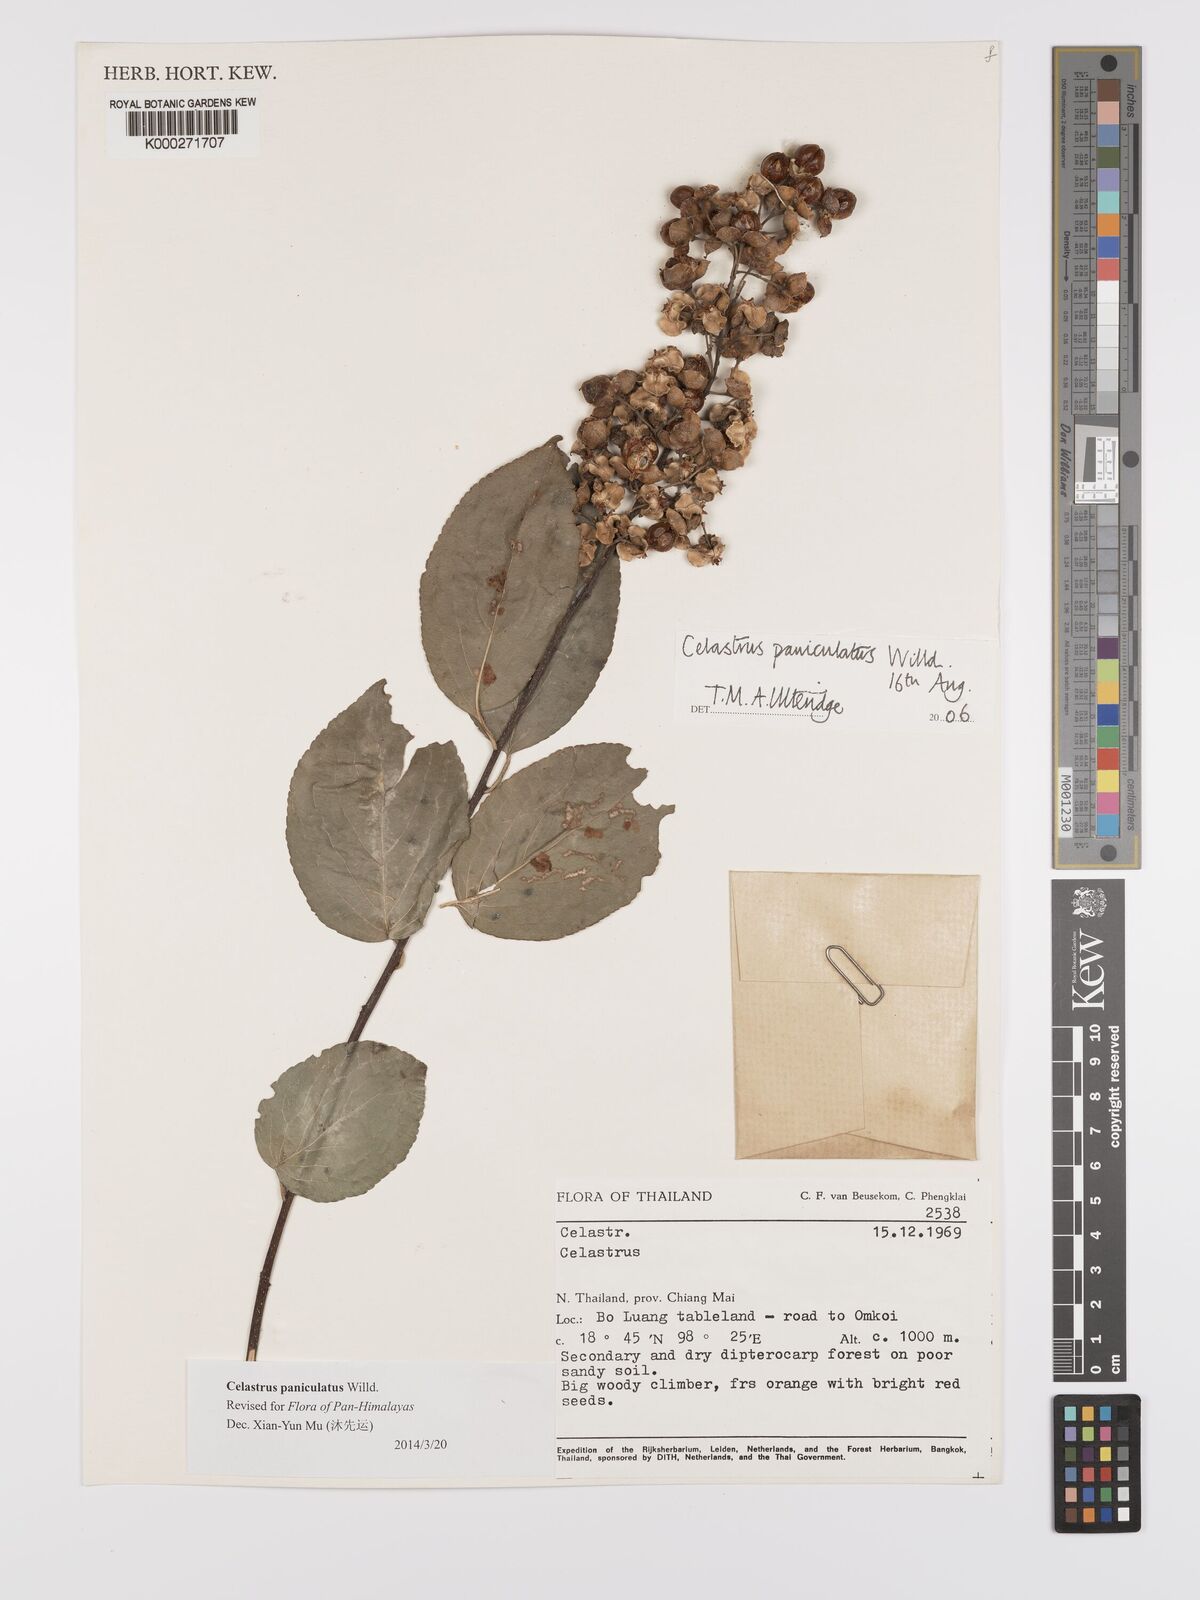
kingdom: Plantae
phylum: Tracheophyta
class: Magnoliopsida
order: Celastrales
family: Celastraceae
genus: Celastrus
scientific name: Celastrus paniculatus
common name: Oriental bittersweet; staff vine
